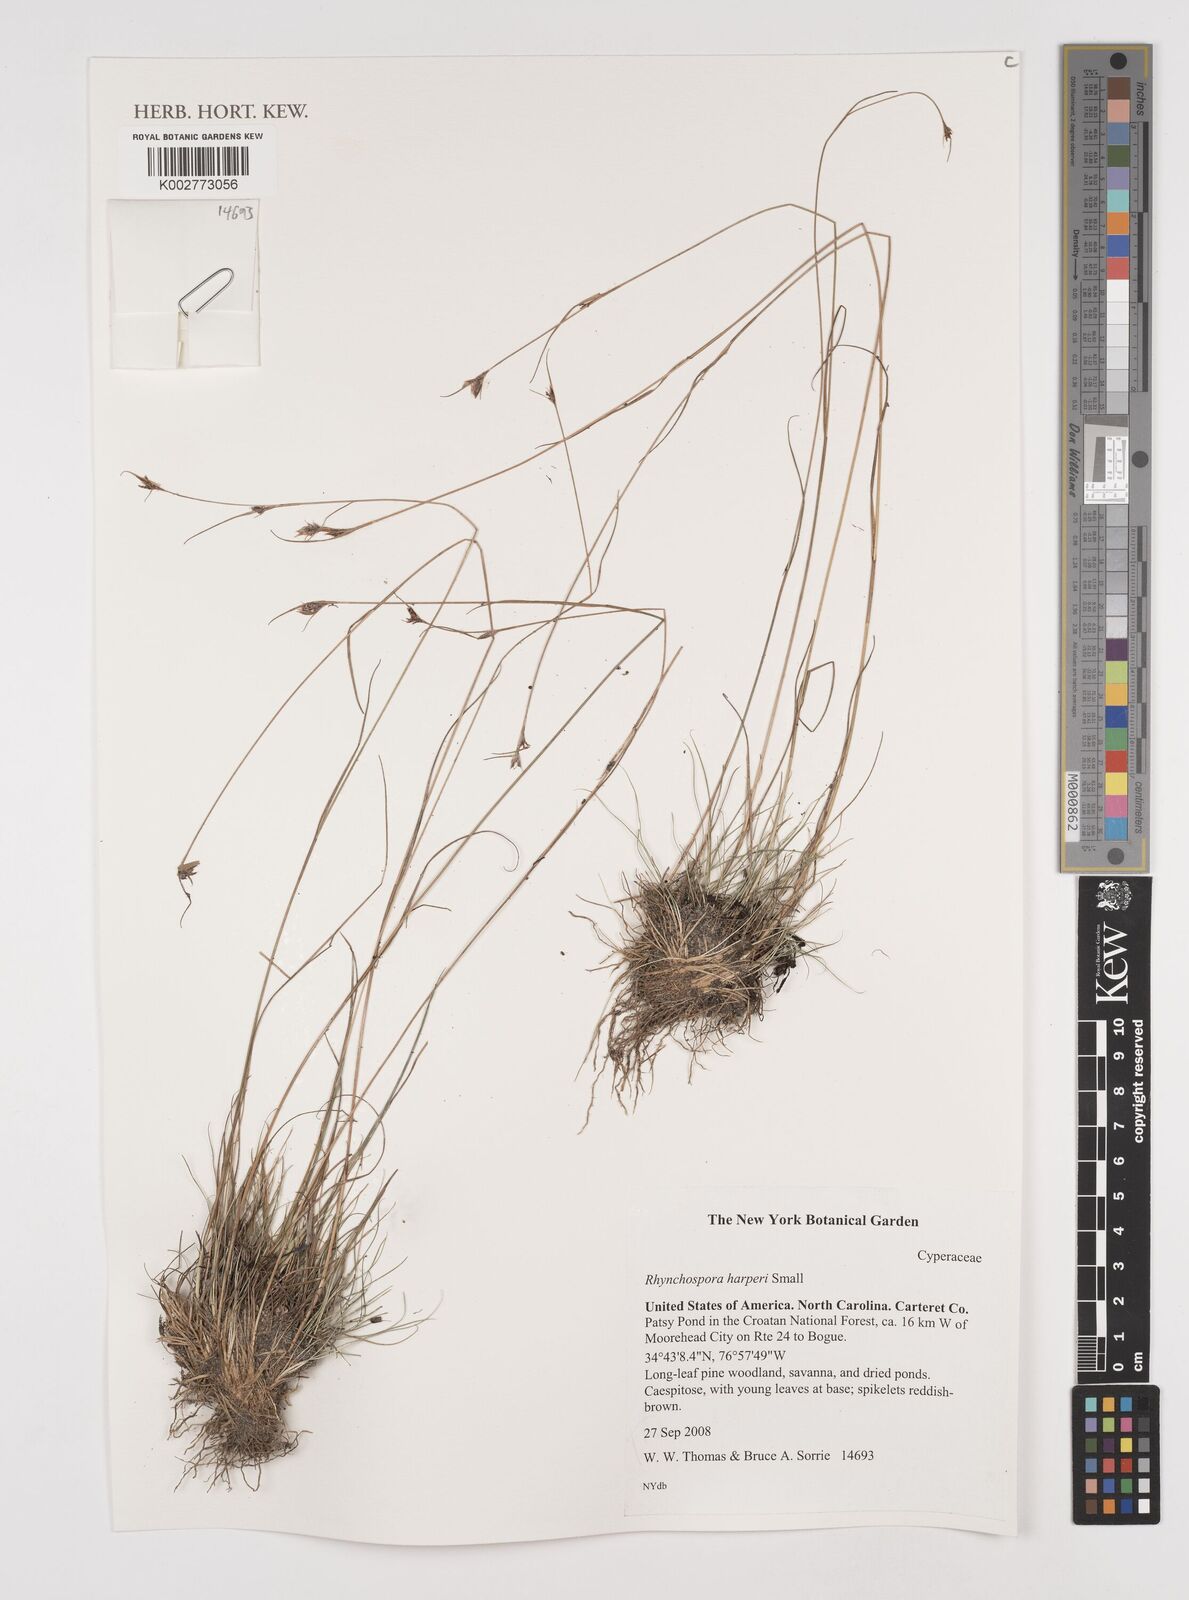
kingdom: Plantae
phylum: Tracheophyta
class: Liliopsida
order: Poales
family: Cyperaceae
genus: Rhynchospora
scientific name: Rhynchospora harperi
